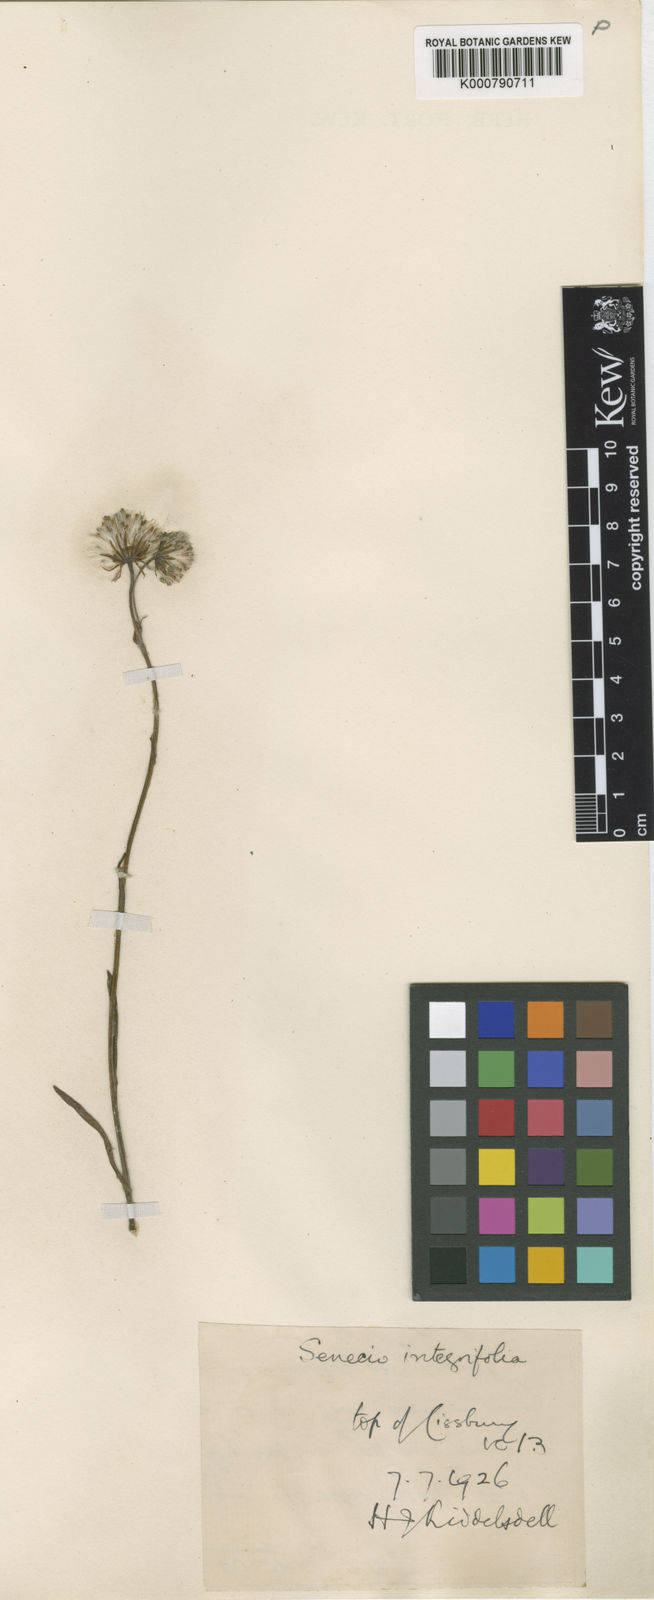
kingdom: Plantae
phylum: Tracheophyta
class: Magnoliopsida
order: Asterales
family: Asteraceae
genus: Tephroseris
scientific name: Tephroseris integrifolia
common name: Field fleawort
